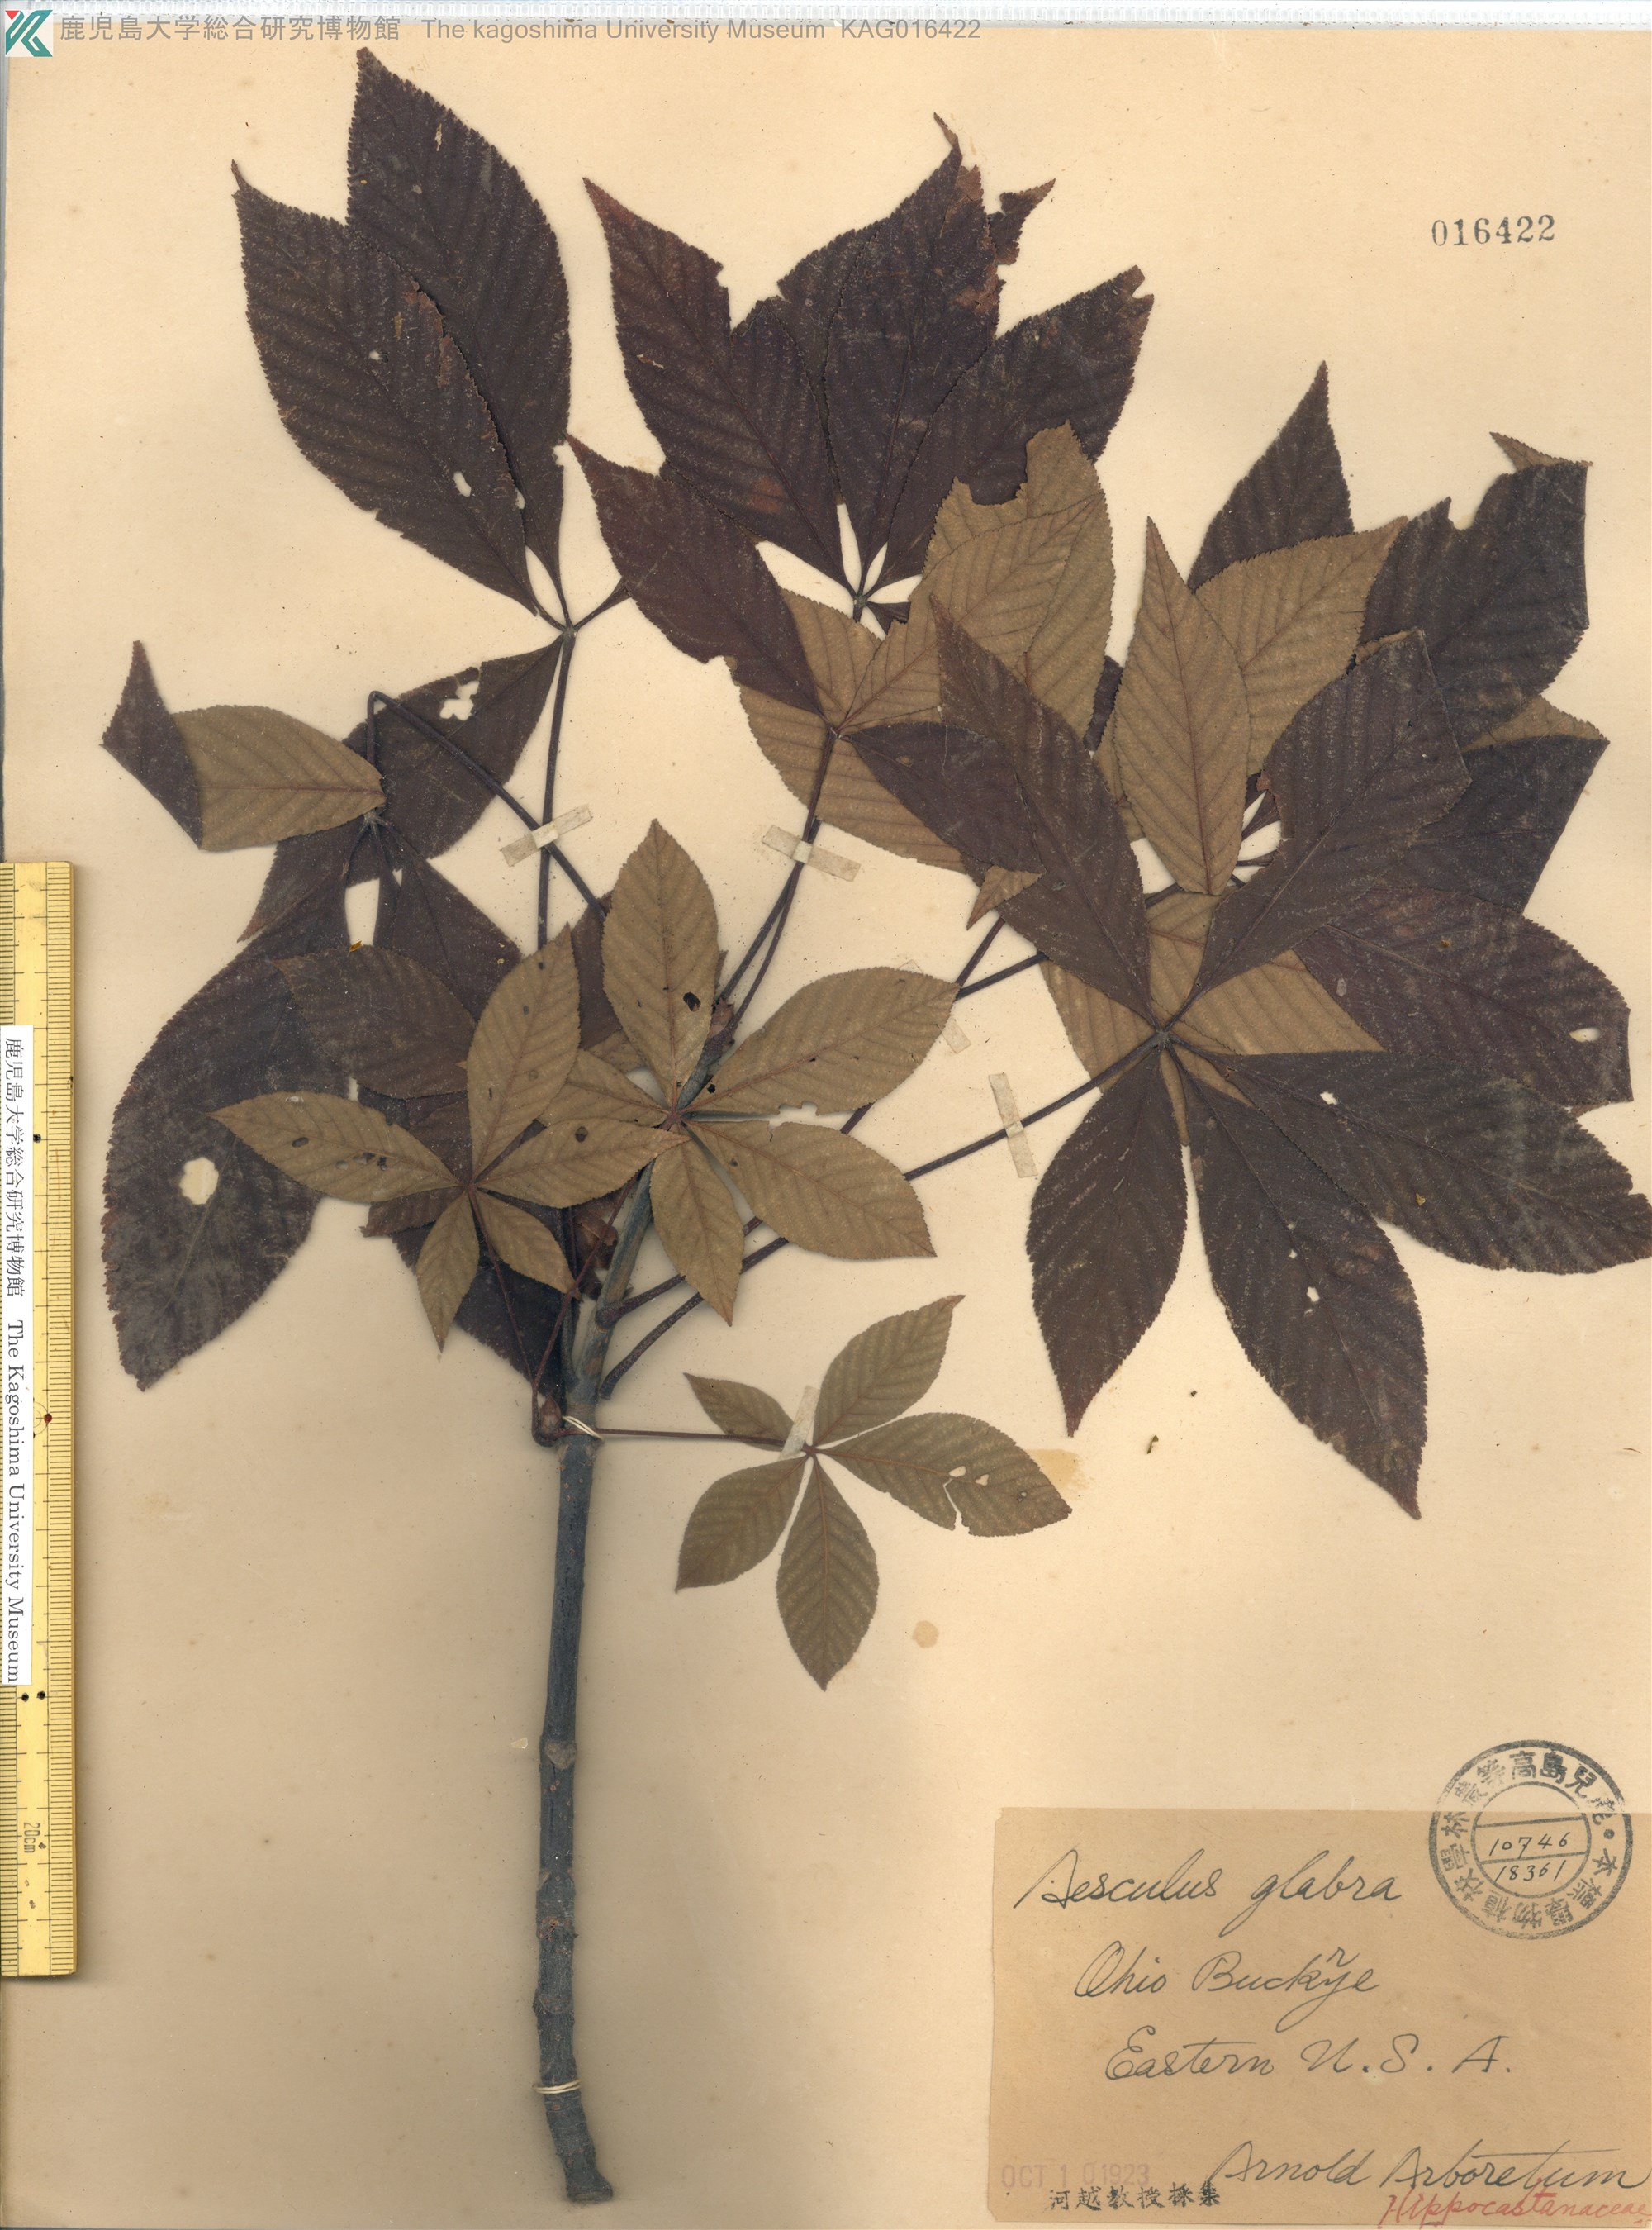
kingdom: Plantae
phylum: Tracheophyta
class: Magnoliopsida
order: Sapindales
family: Sapindaceae
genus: Aesculus
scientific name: Aesculus glabra
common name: Ohio buckeye
